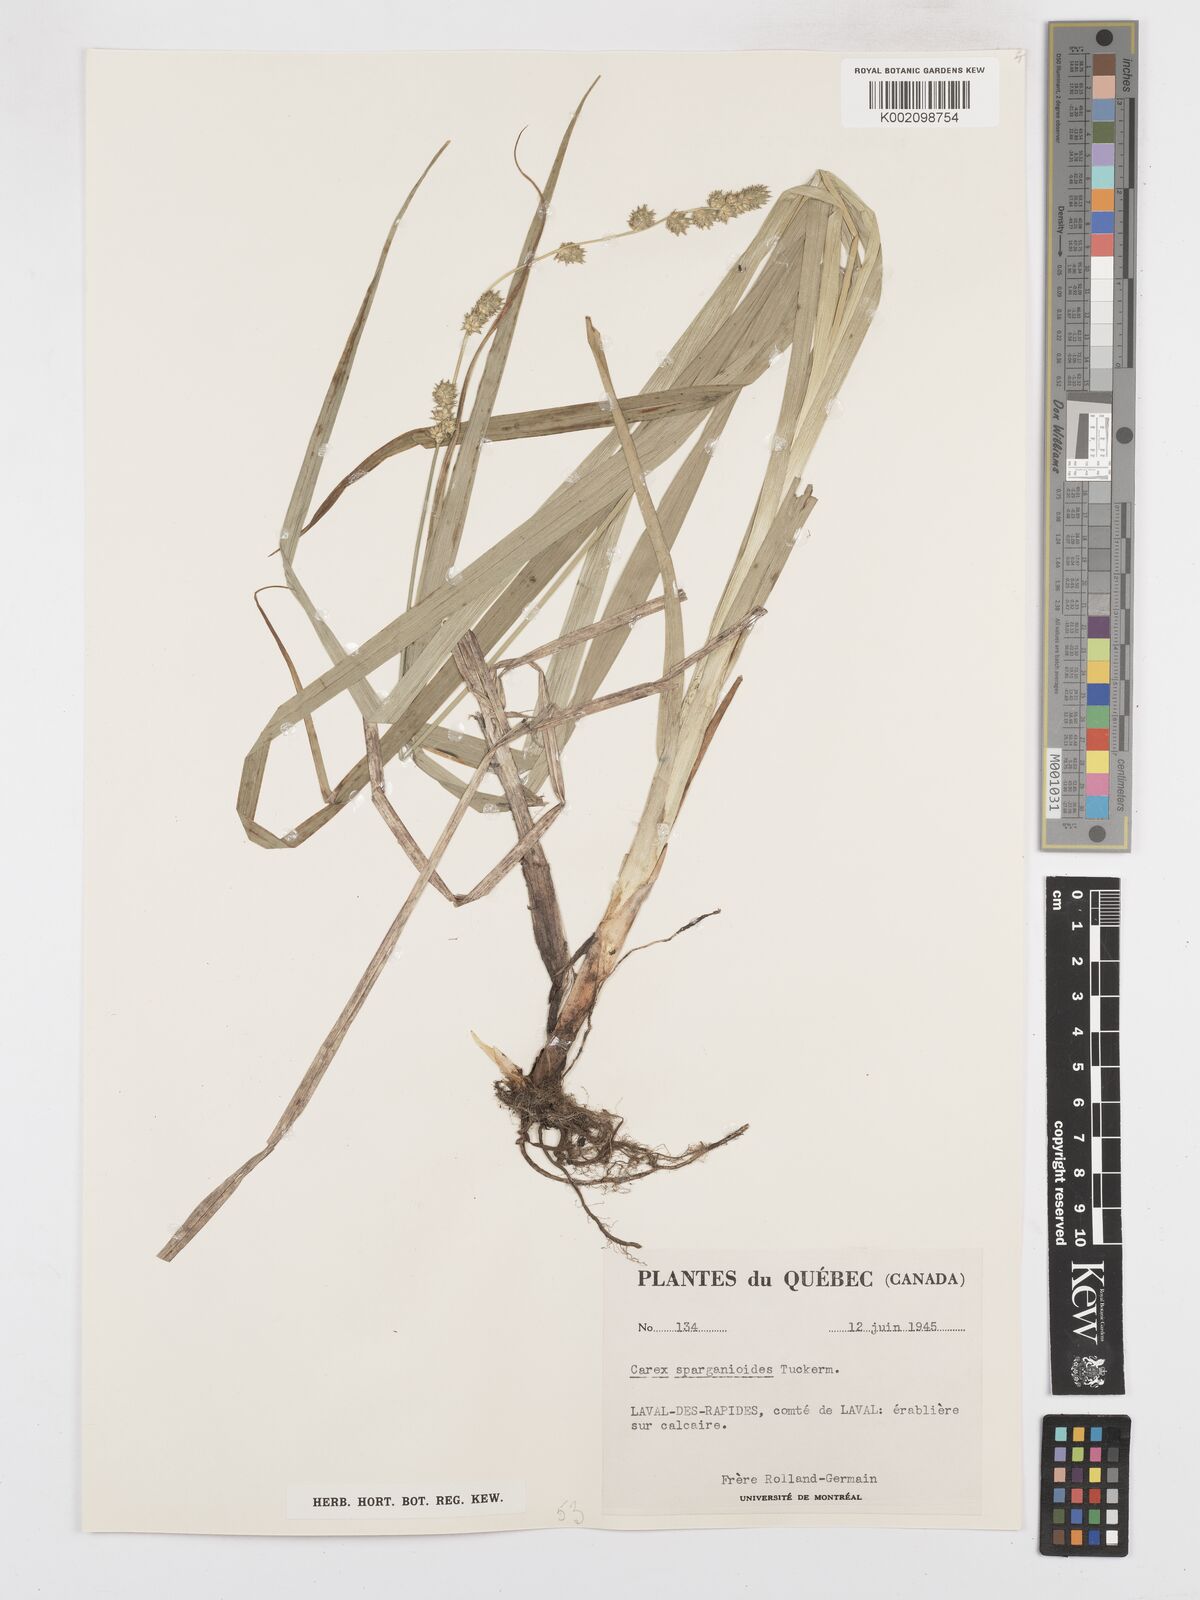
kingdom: Plantae
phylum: Tracheophyta
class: Liliopsida
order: Poales
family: Cyperaceae
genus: Carex
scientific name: Carex sparganioides
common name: Burreed sedge
